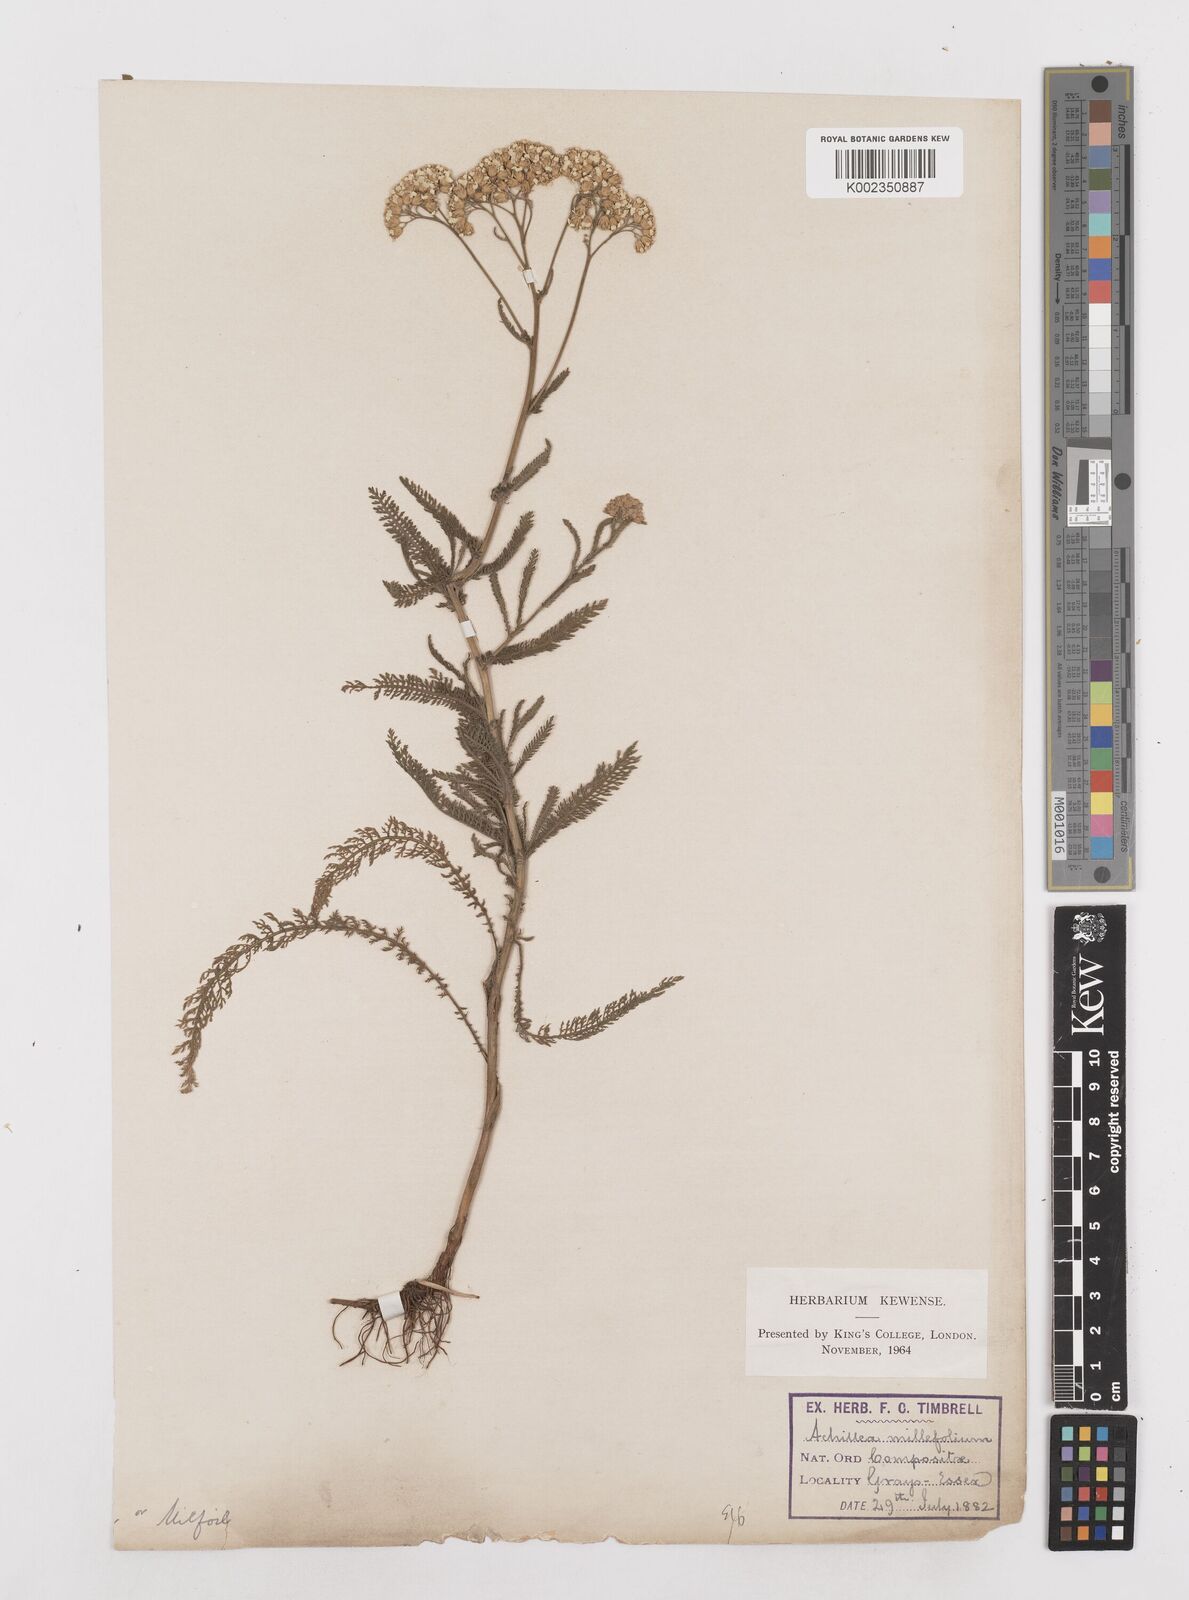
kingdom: Plantae
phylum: Tracheophyta
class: Magnoliopsida
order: Asterales
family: Asteraceae
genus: Achillea
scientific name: Achillea millefolium
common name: Yarrow
